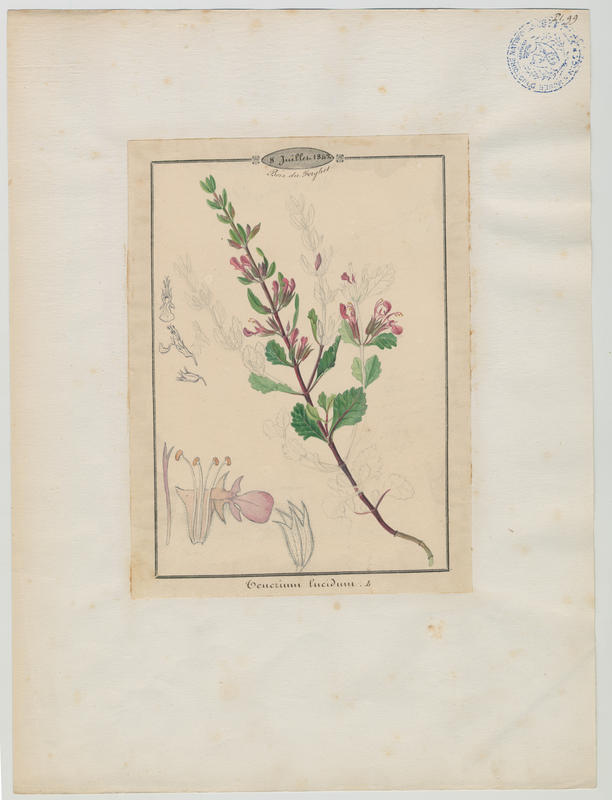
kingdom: Plantae
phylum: Tracheophyta
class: Magnoliopsida
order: Lamiales
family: Lamiaceae
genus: Teucrium
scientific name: Teucrium lucidum
